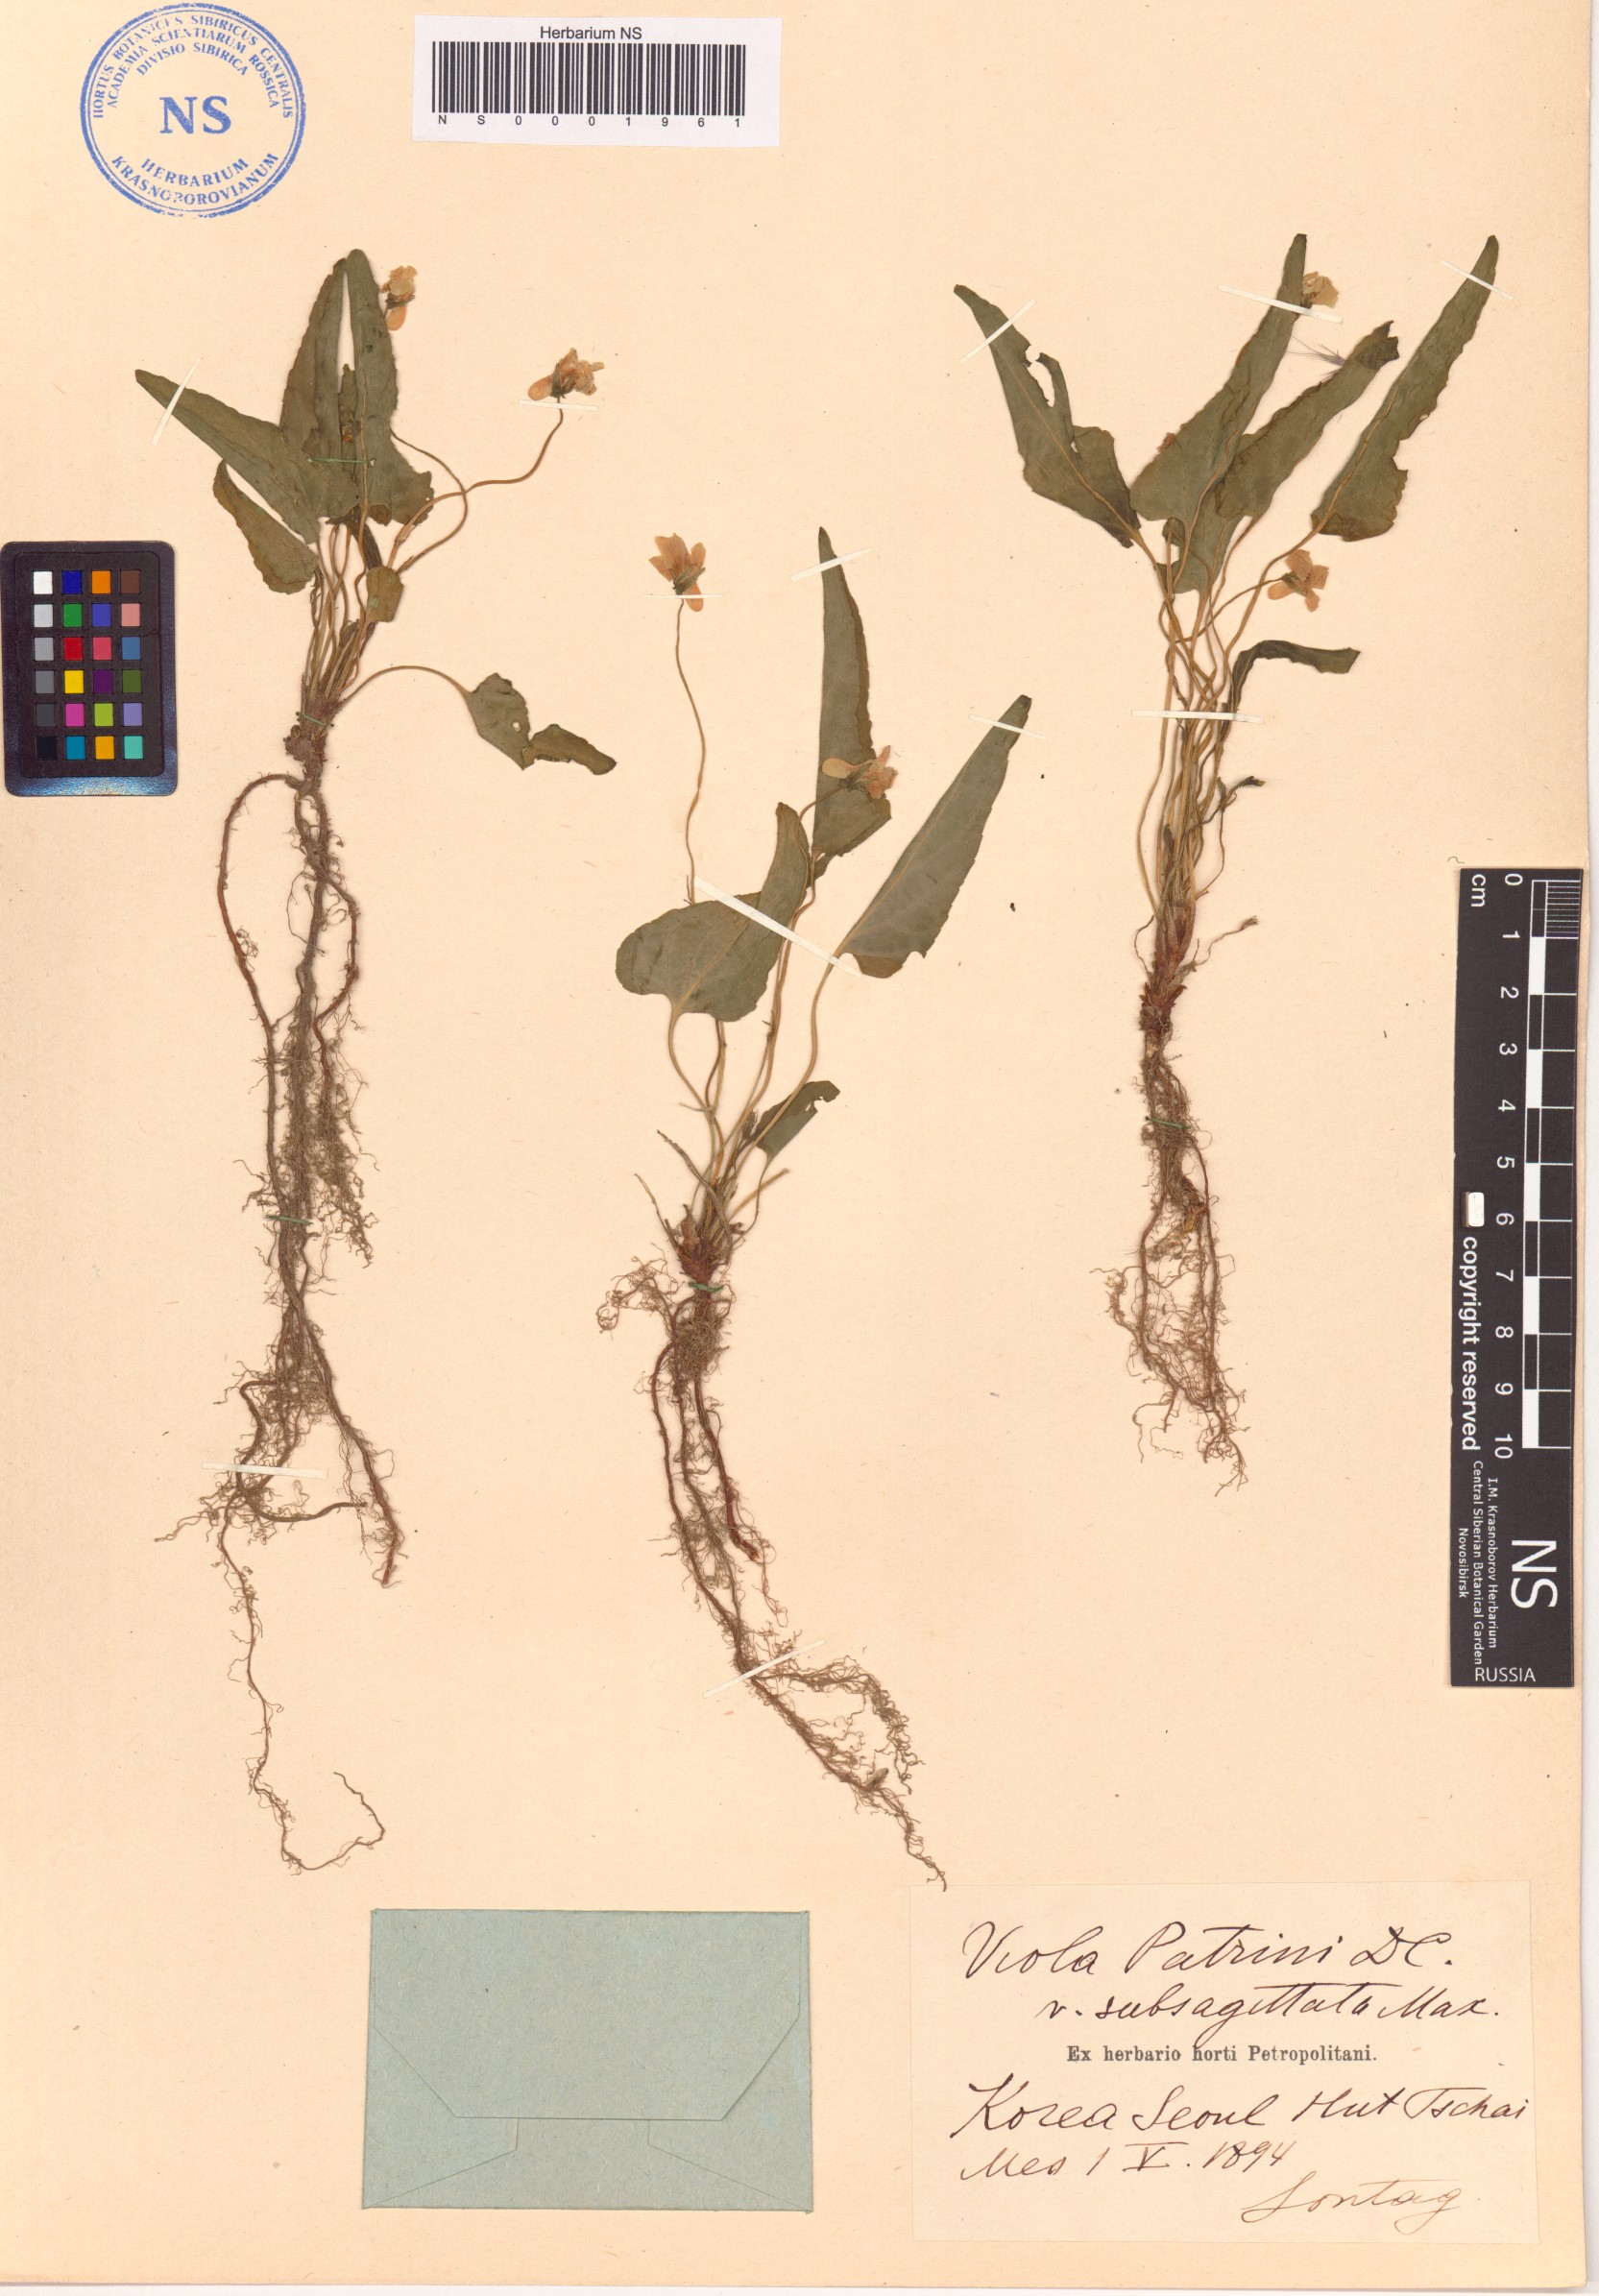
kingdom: Plantae
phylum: Tracheophyta
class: Magnoliopsida
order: Malpighiales
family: Violaceae
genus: Viola
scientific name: Viola patrinii
